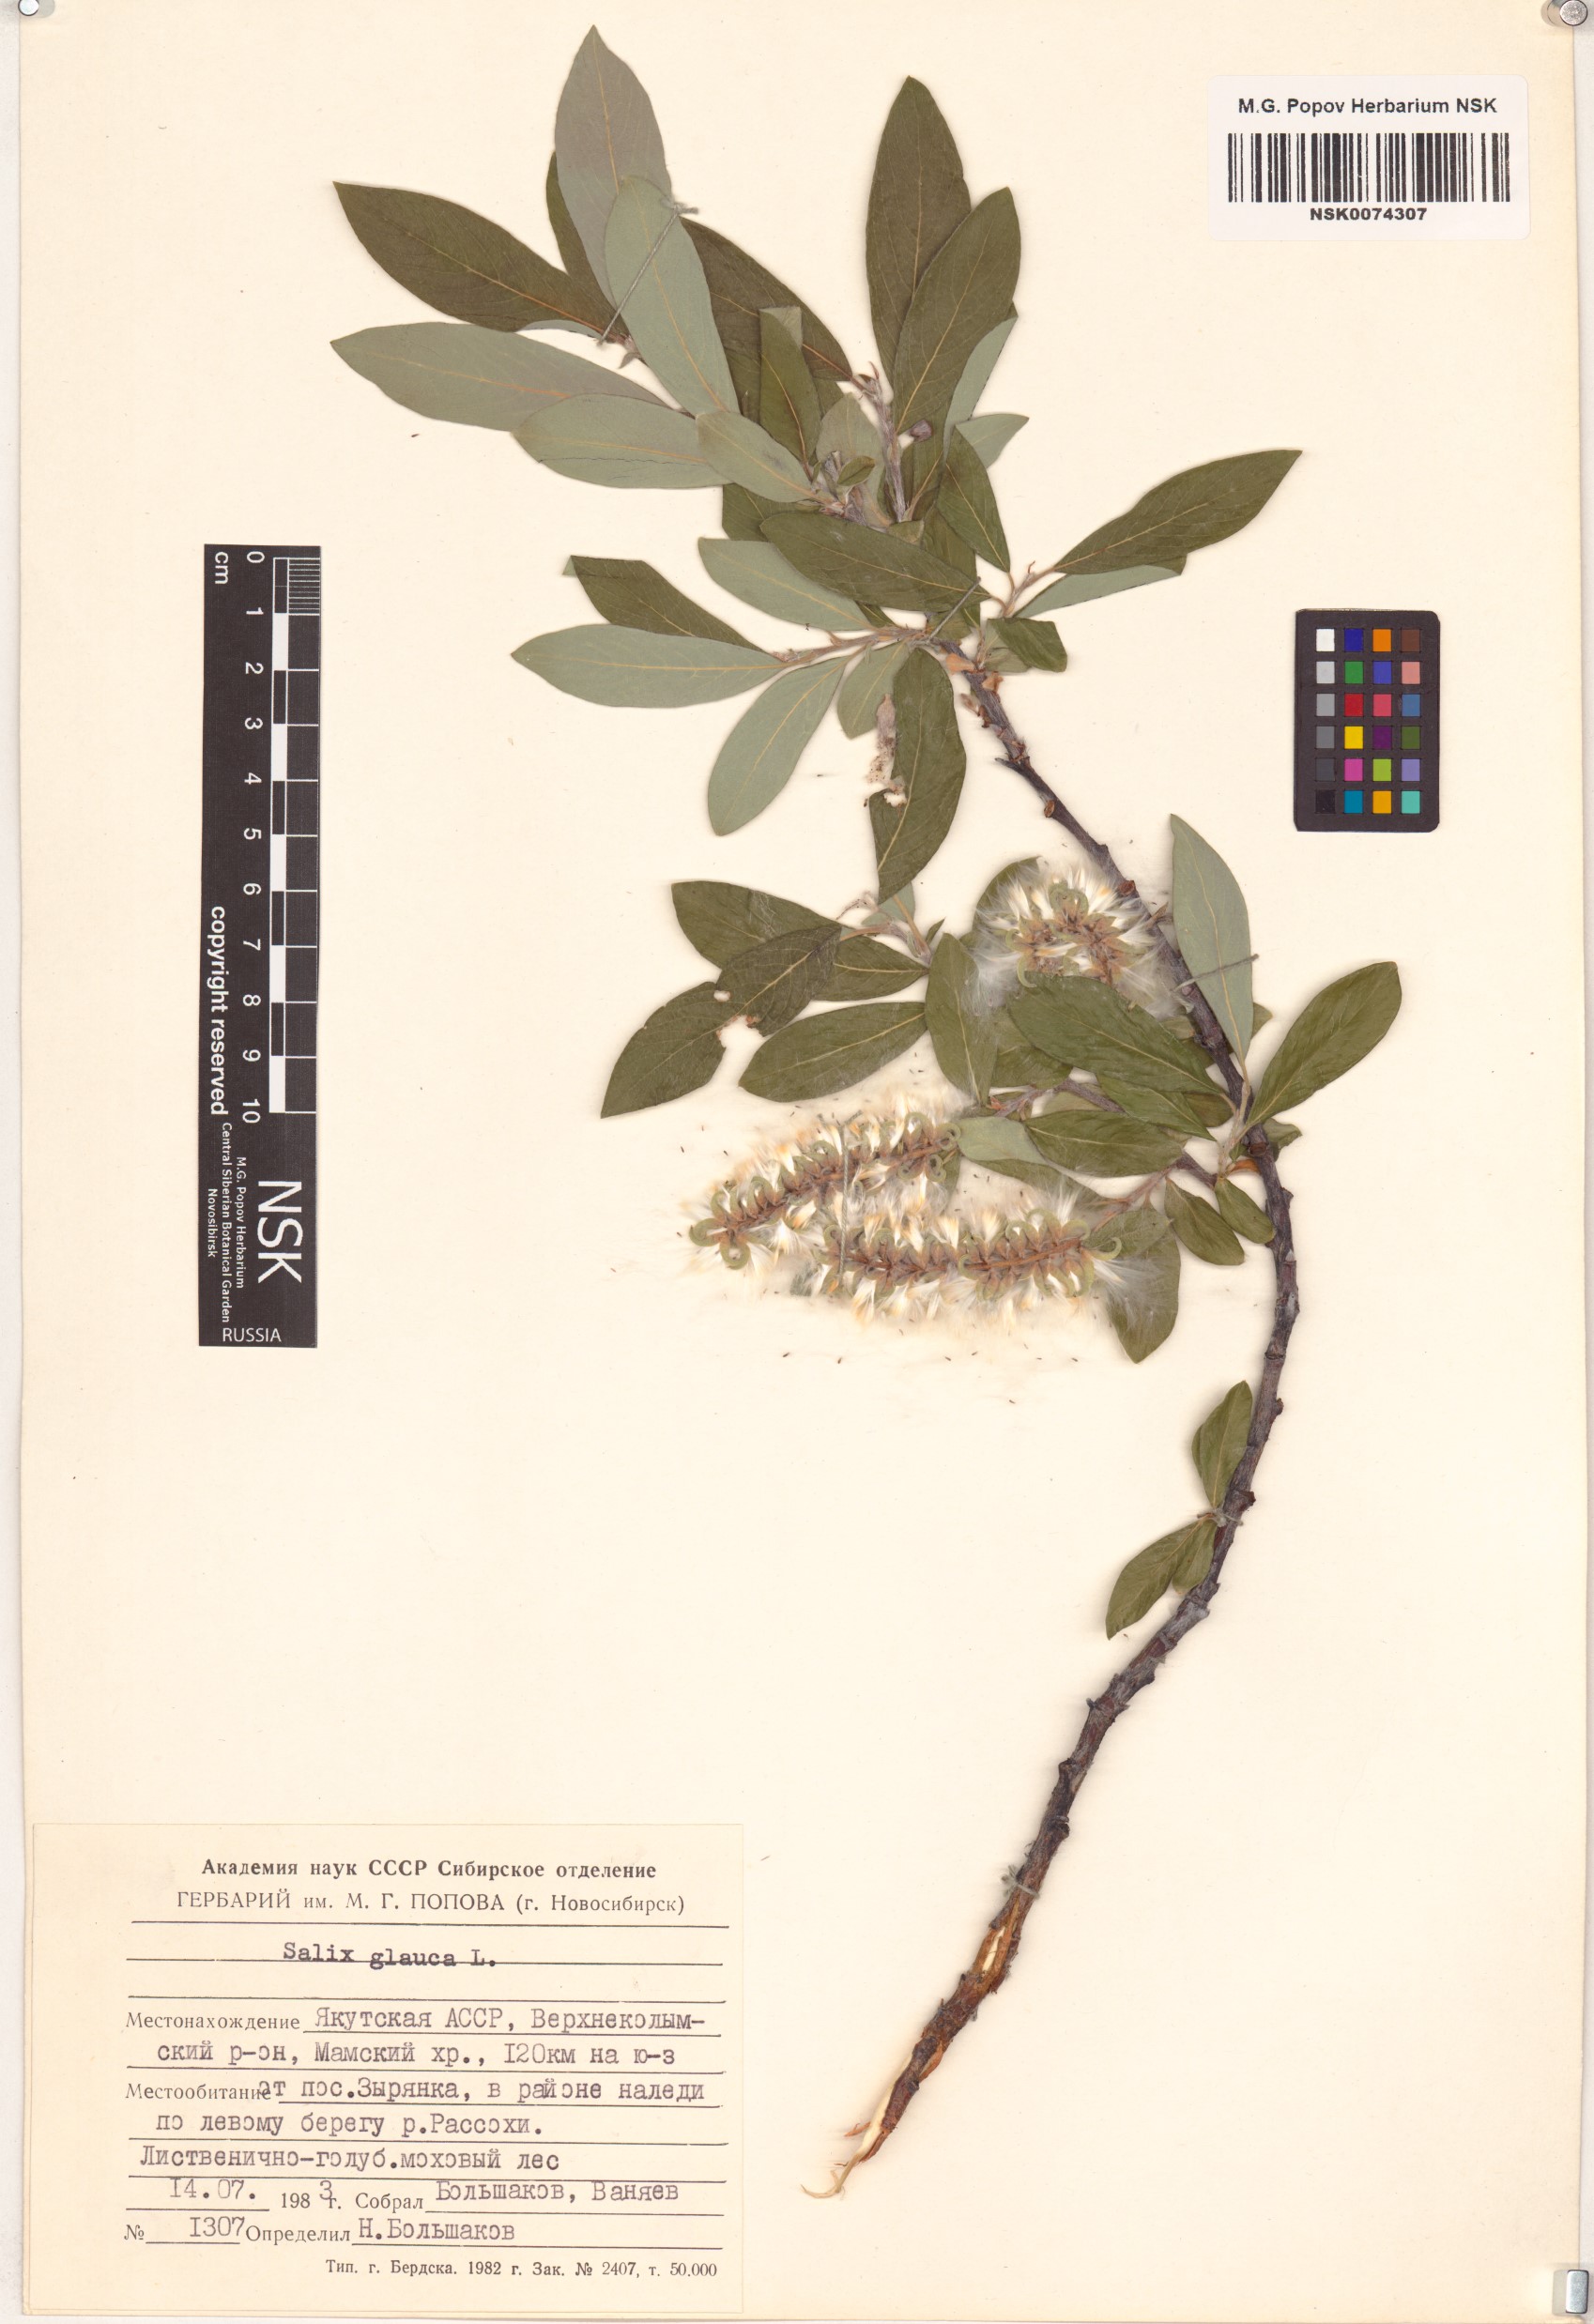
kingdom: Plantae
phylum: Tracheophyta
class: Magnoliopsida
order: Malpighiales
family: Salicaceae
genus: Salix
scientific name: Salix glauca
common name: Glaucous willow
